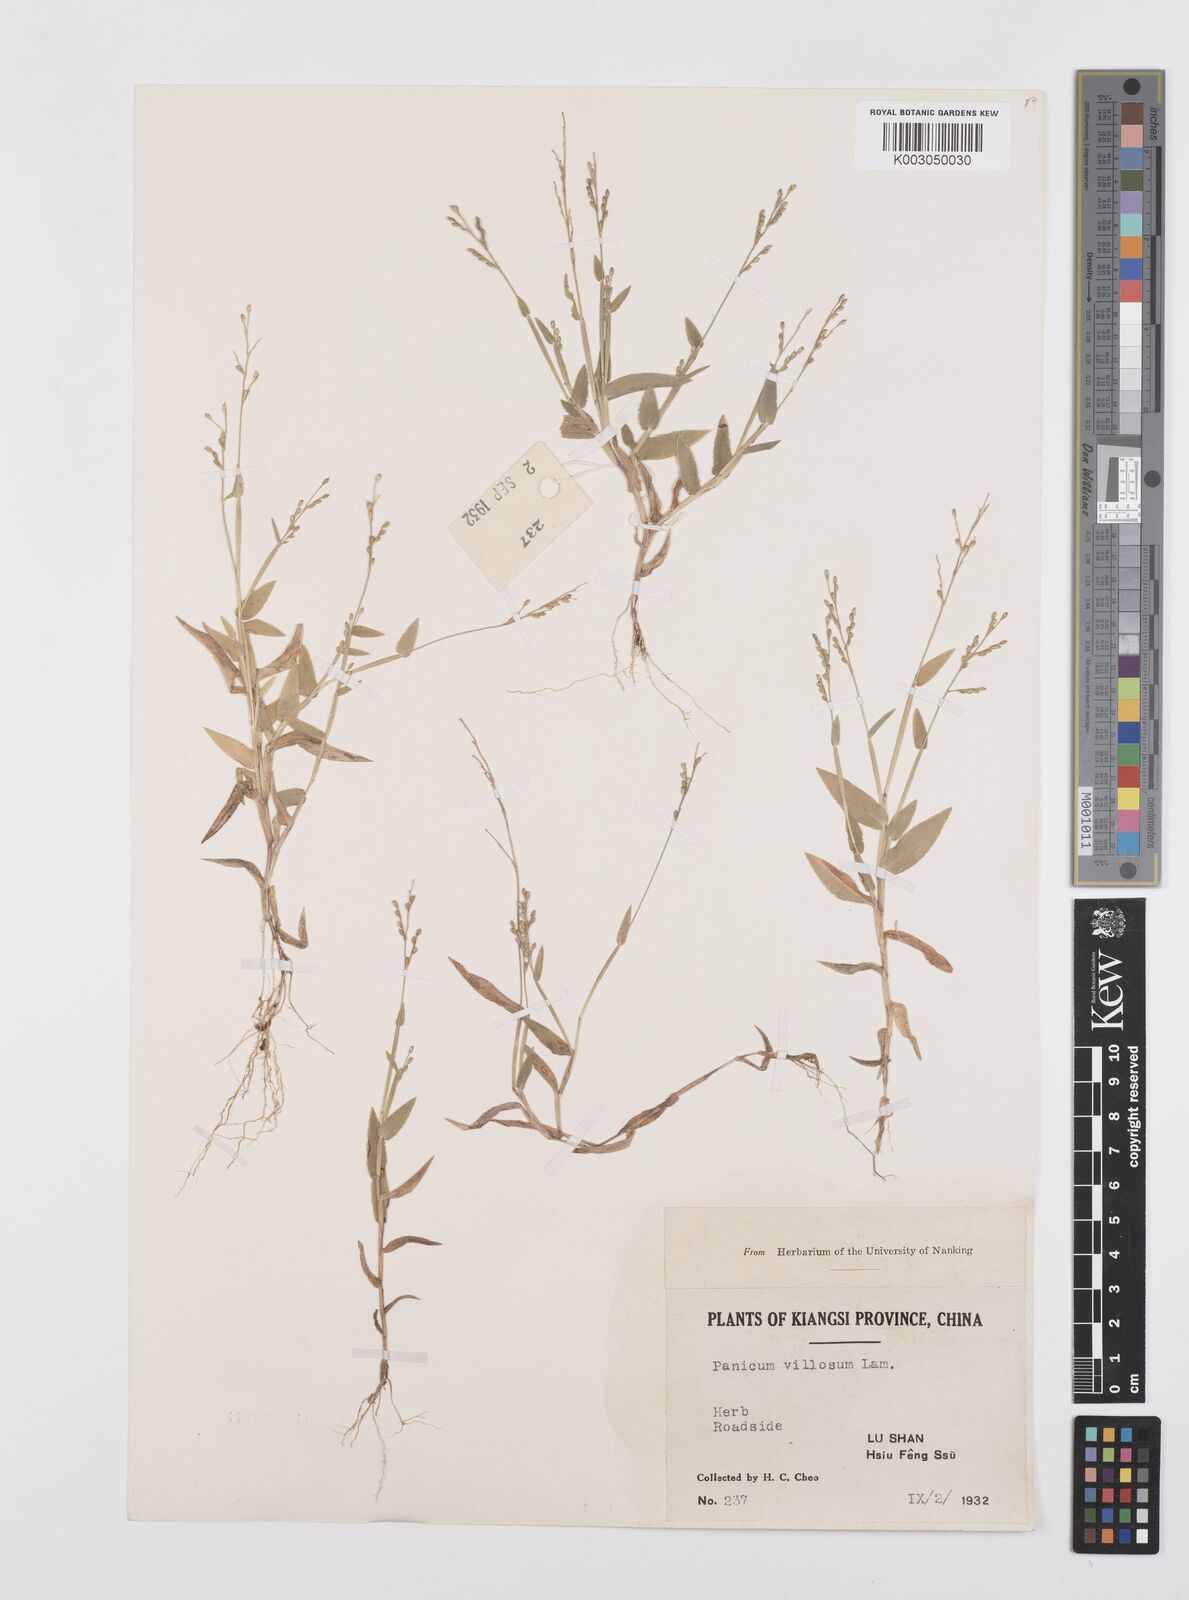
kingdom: Plantae
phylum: Tracheophyta
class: Liliopsida
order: Poales
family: Poaceae
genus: Urochloa
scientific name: Urochloa villosa
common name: Hairy signalgrass
